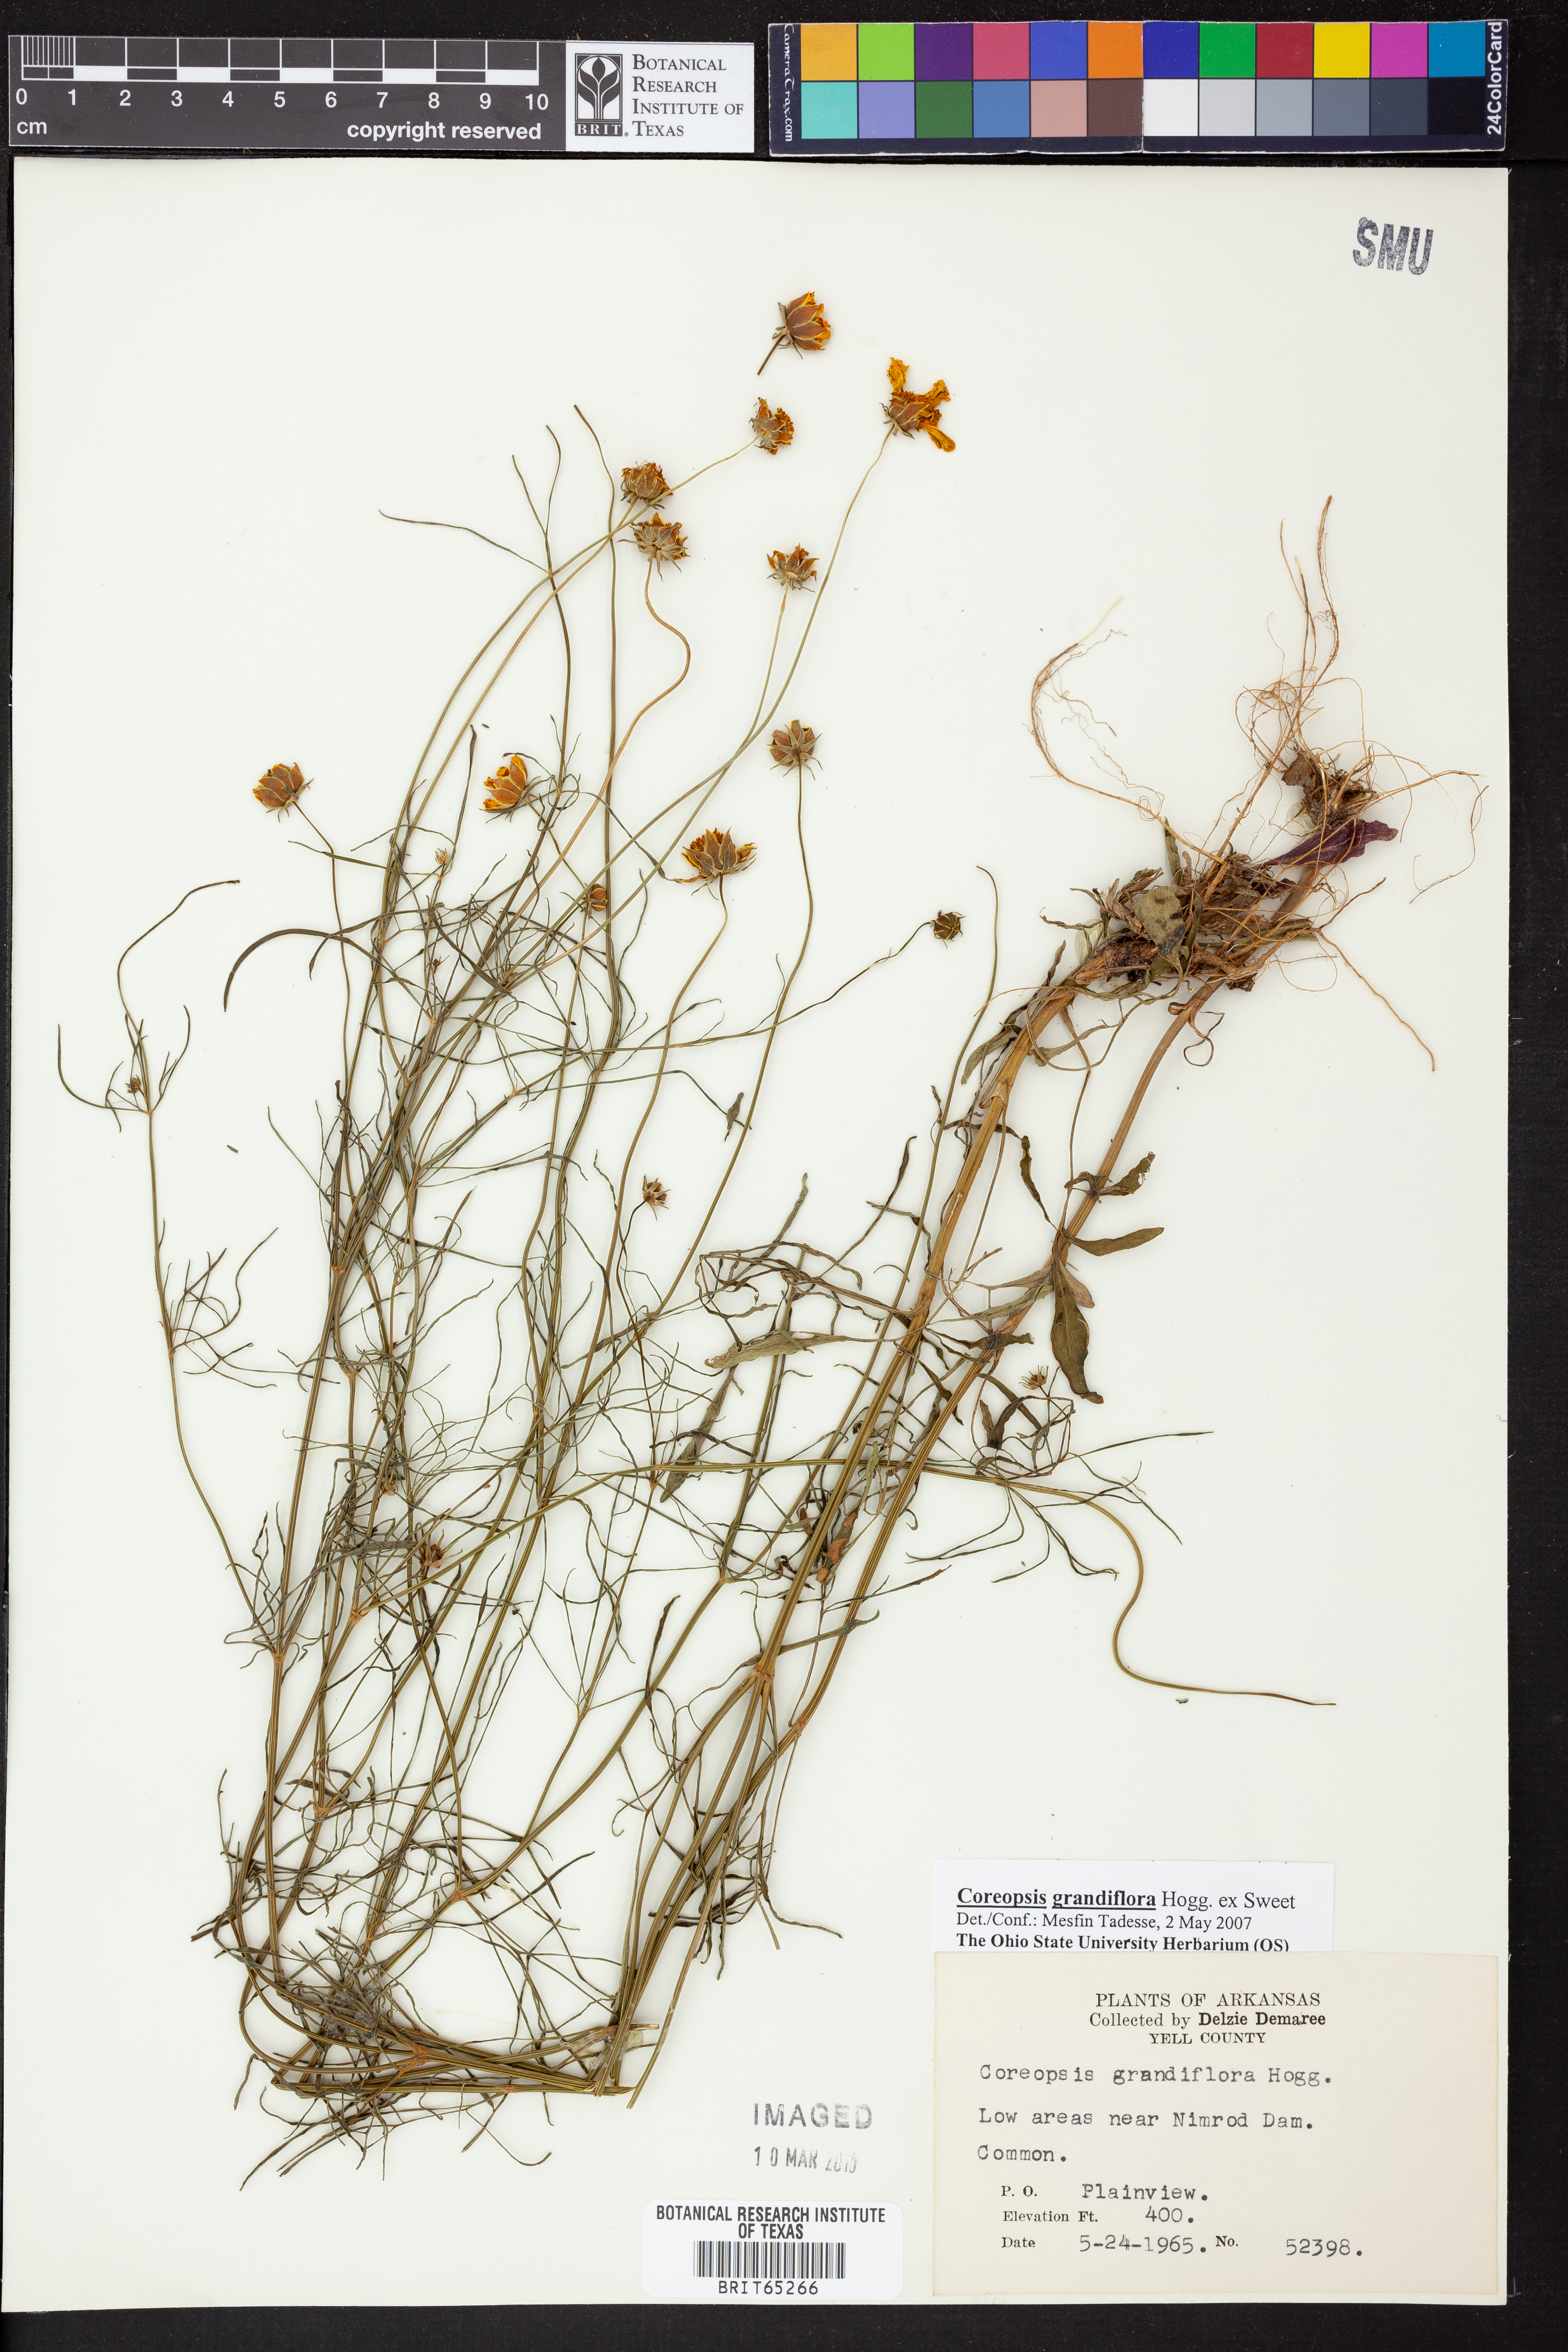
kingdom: Plantae
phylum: Tracheophyta
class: Magnoliopsida
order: Asterales
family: Asteraceae
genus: Coreopsis
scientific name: Coreopsis grandiflora
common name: Large-flowered tickseed
